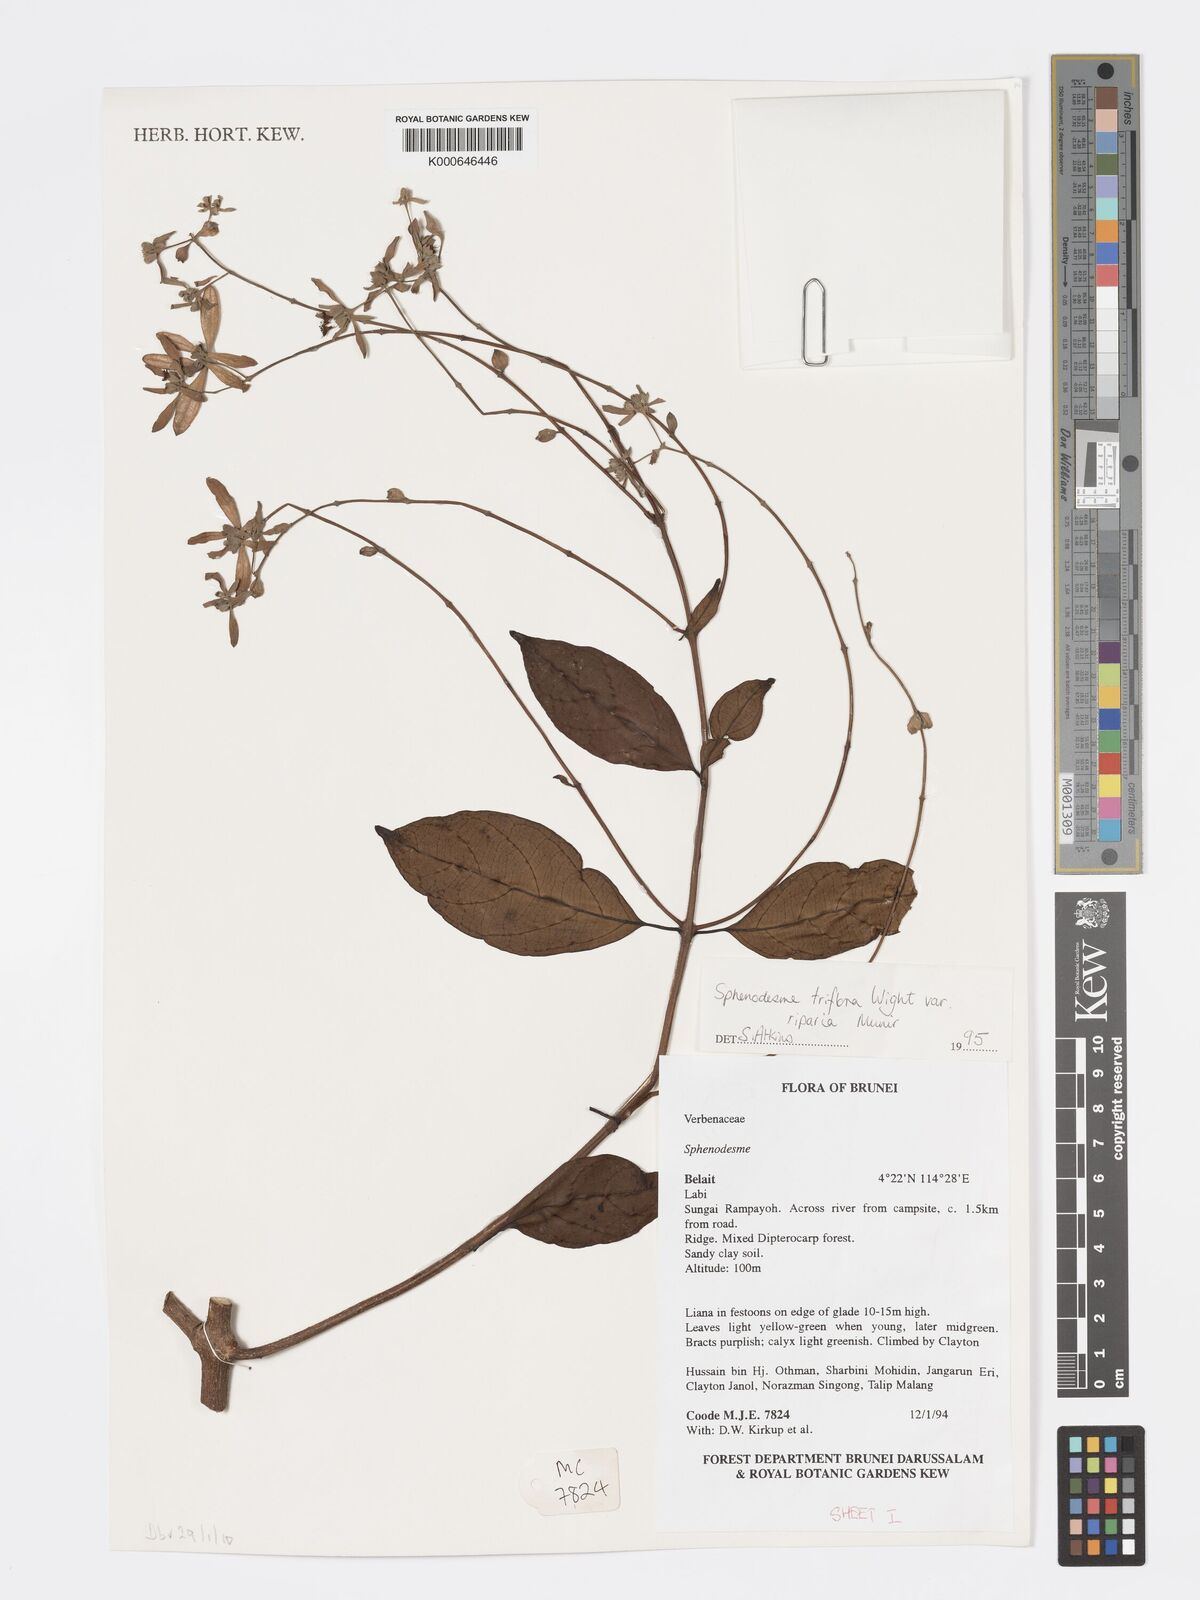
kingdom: Plantae
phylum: Tracheophyta
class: Magnoliopsida
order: Lamiales
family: Lamiaceae
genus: Sphenodesme
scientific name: Sphenodesme
